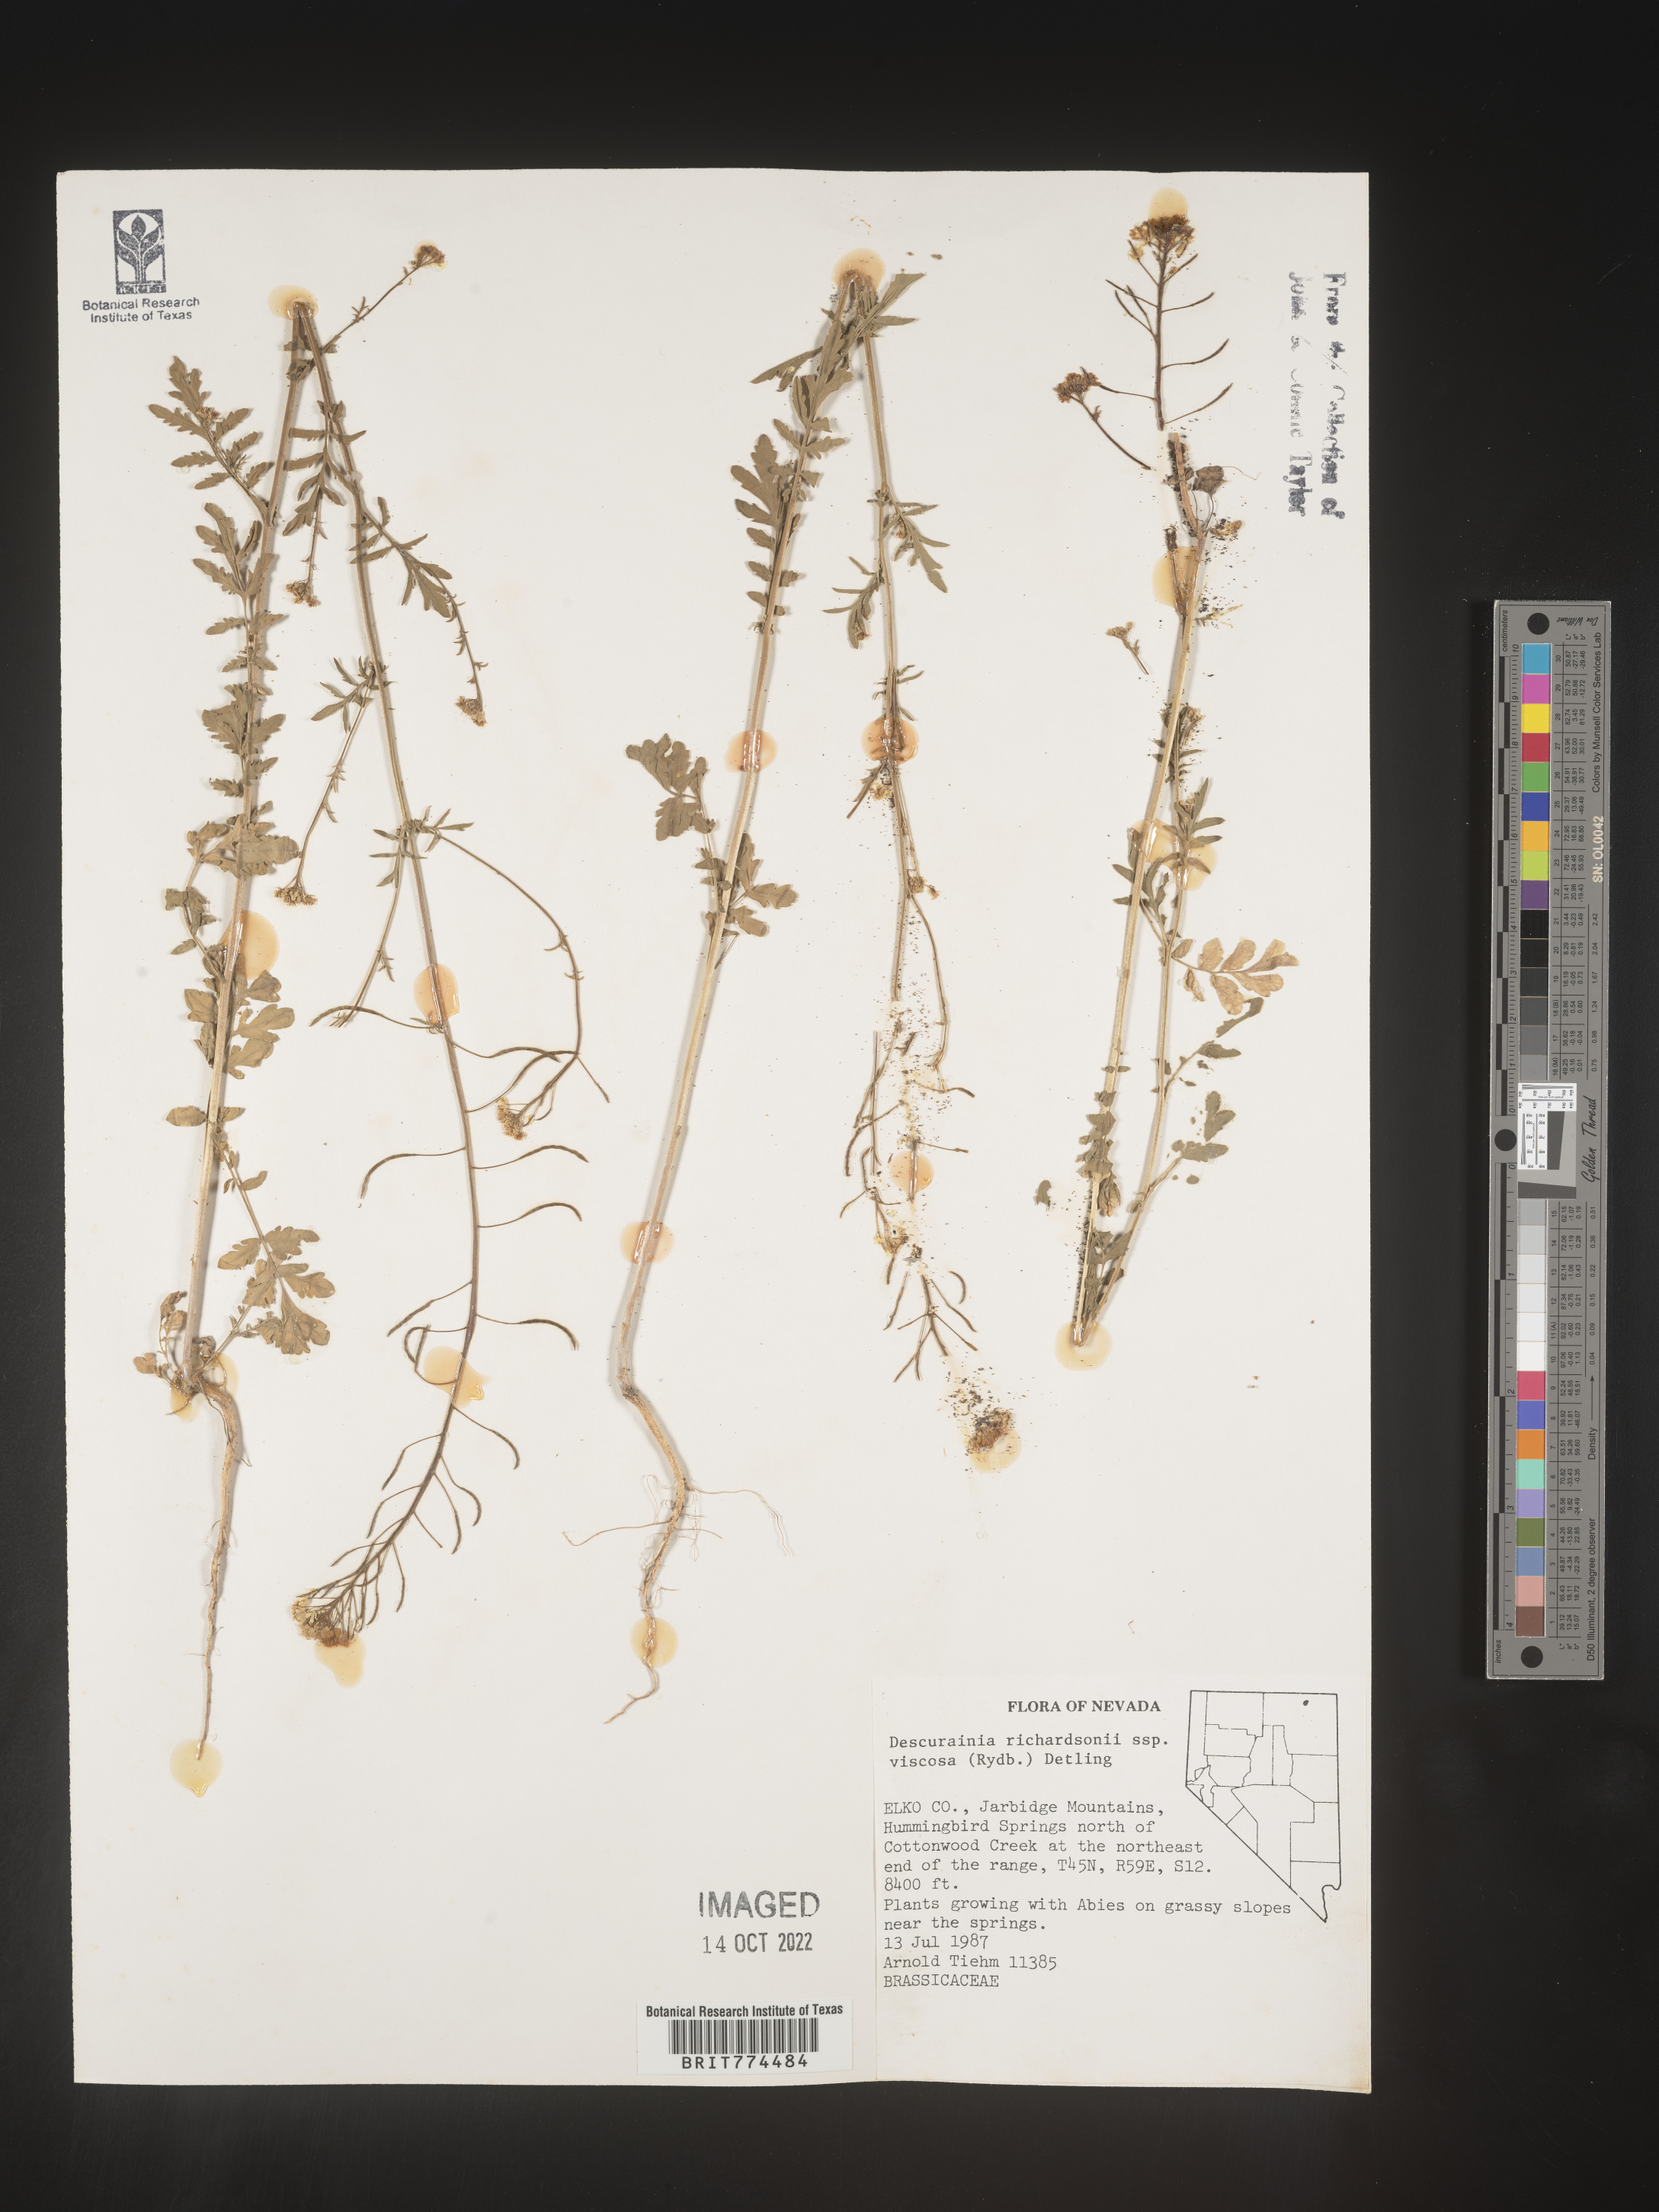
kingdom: Plantae
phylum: Tracheophyta
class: Magnoliopsida
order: Brassicales
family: Brassicaceae
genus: Descurainia
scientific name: Descurainia
